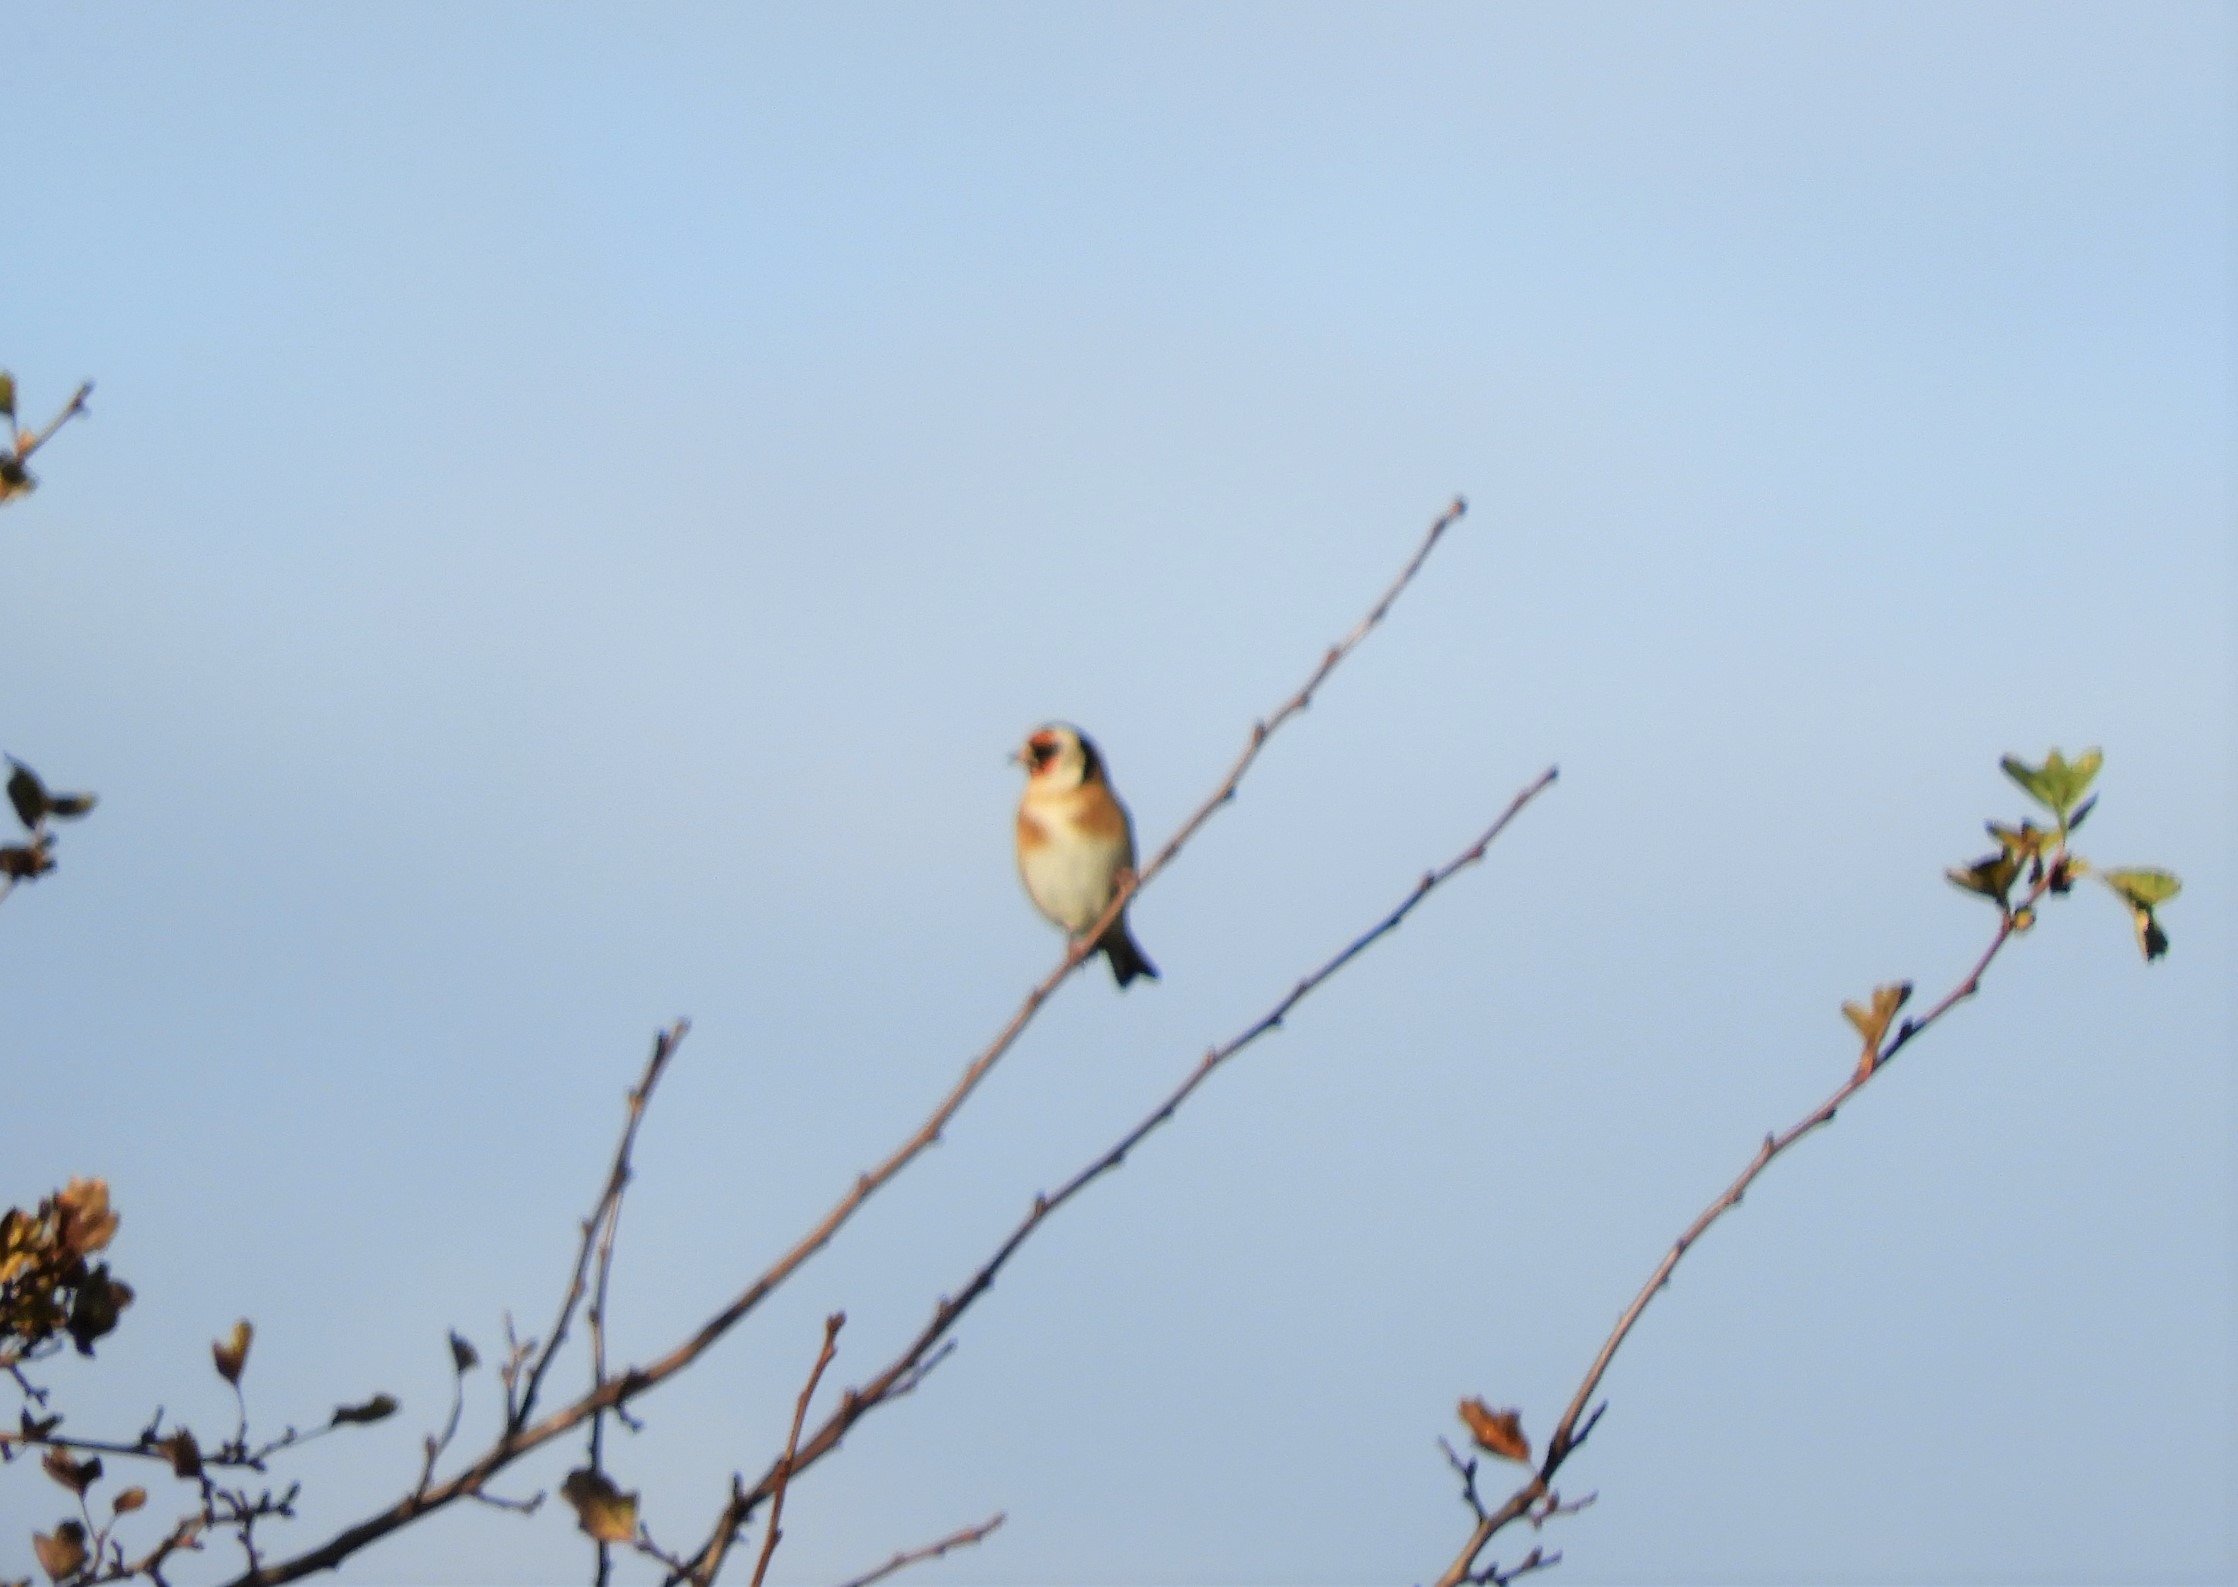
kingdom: Animalia
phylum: Chordata
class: Aves
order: Passeriformes
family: Fringillidae
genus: Carduelis
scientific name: Carduelis carduelis
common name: Stillits
